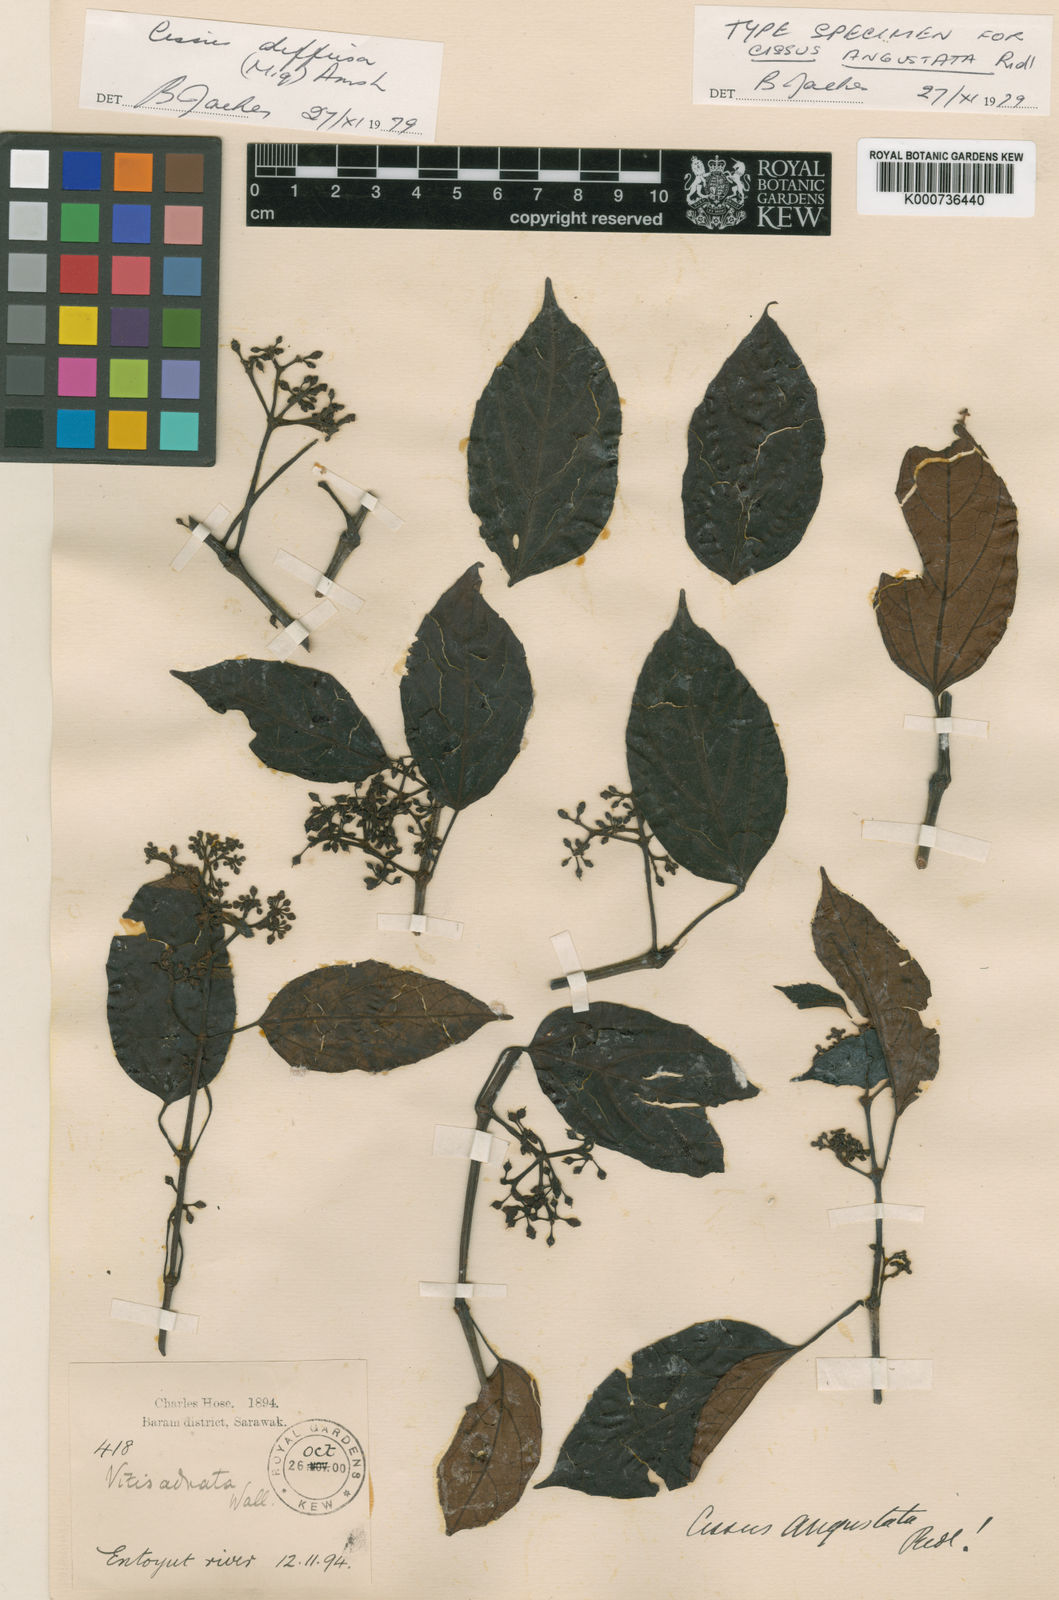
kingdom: Plantae
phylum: Tracheophyta
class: Magnoliopsida
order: Vitales
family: Vitaceae
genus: Cissus
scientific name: Cissus angustata
